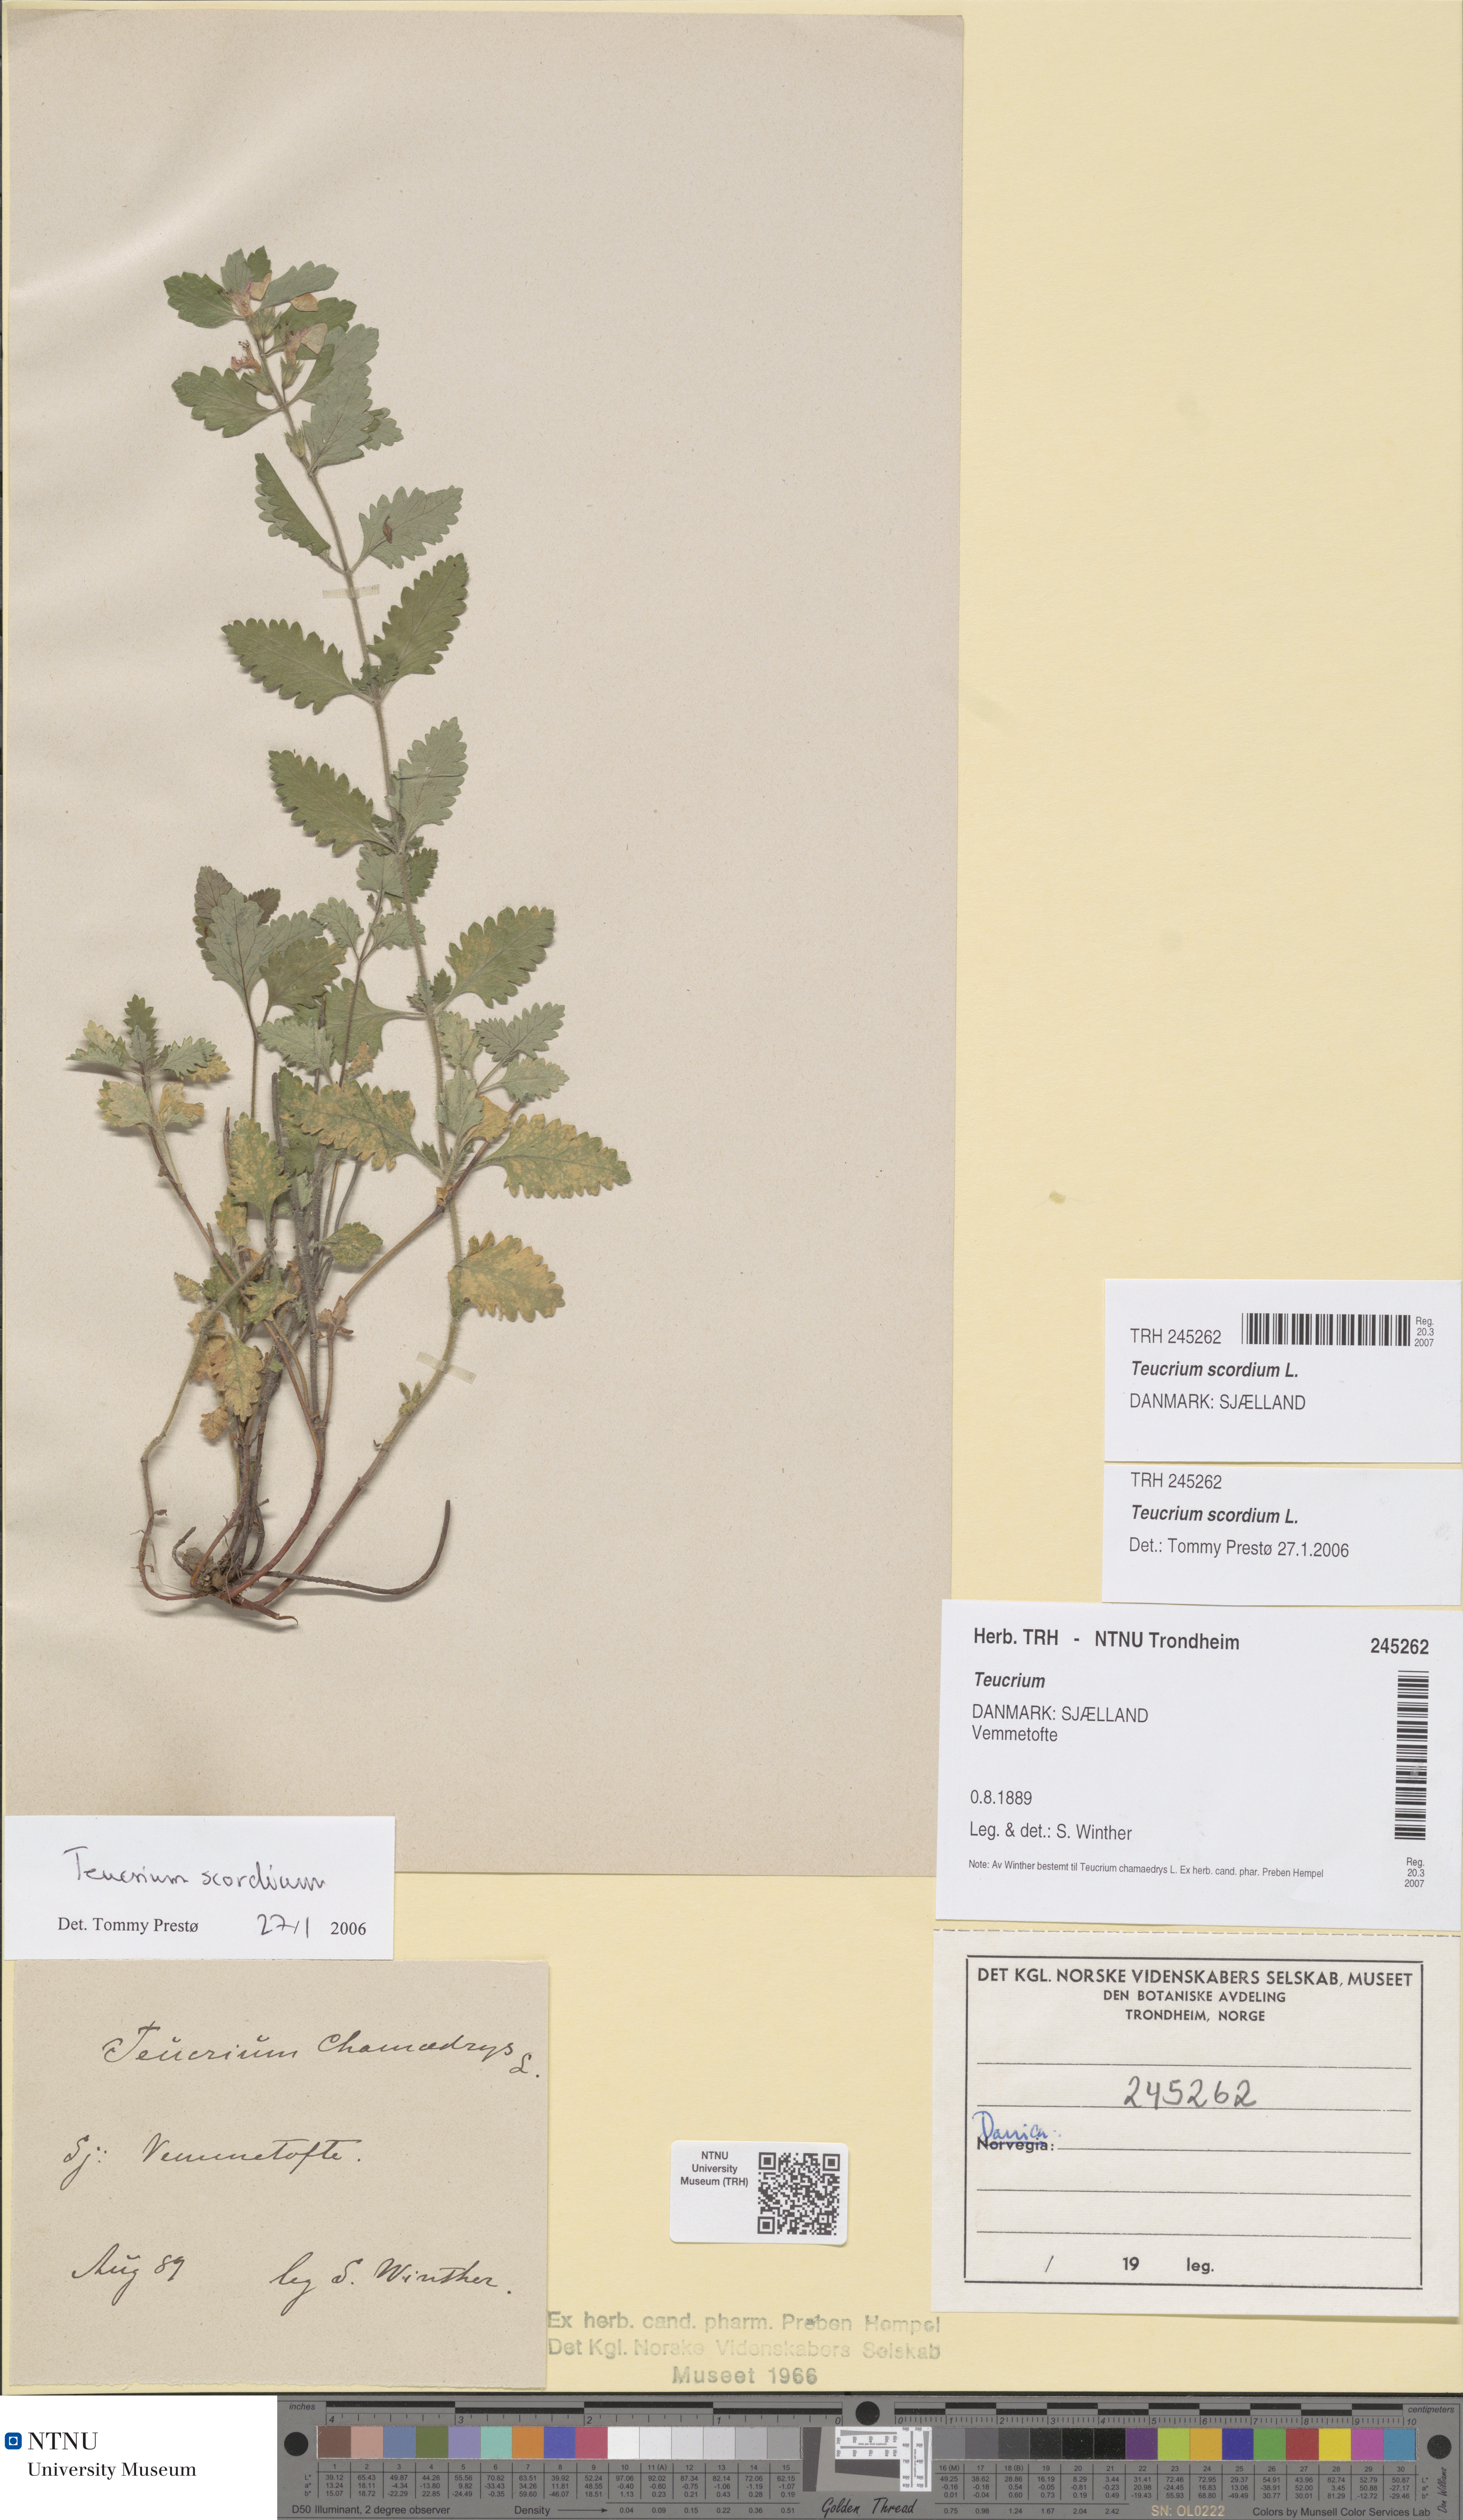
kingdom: Plantae
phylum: Tracheophyta
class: Magnoliopsida
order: Lamiales
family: Lamiaceae
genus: Teucrium
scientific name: Teucrium scordium
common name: Water germander
